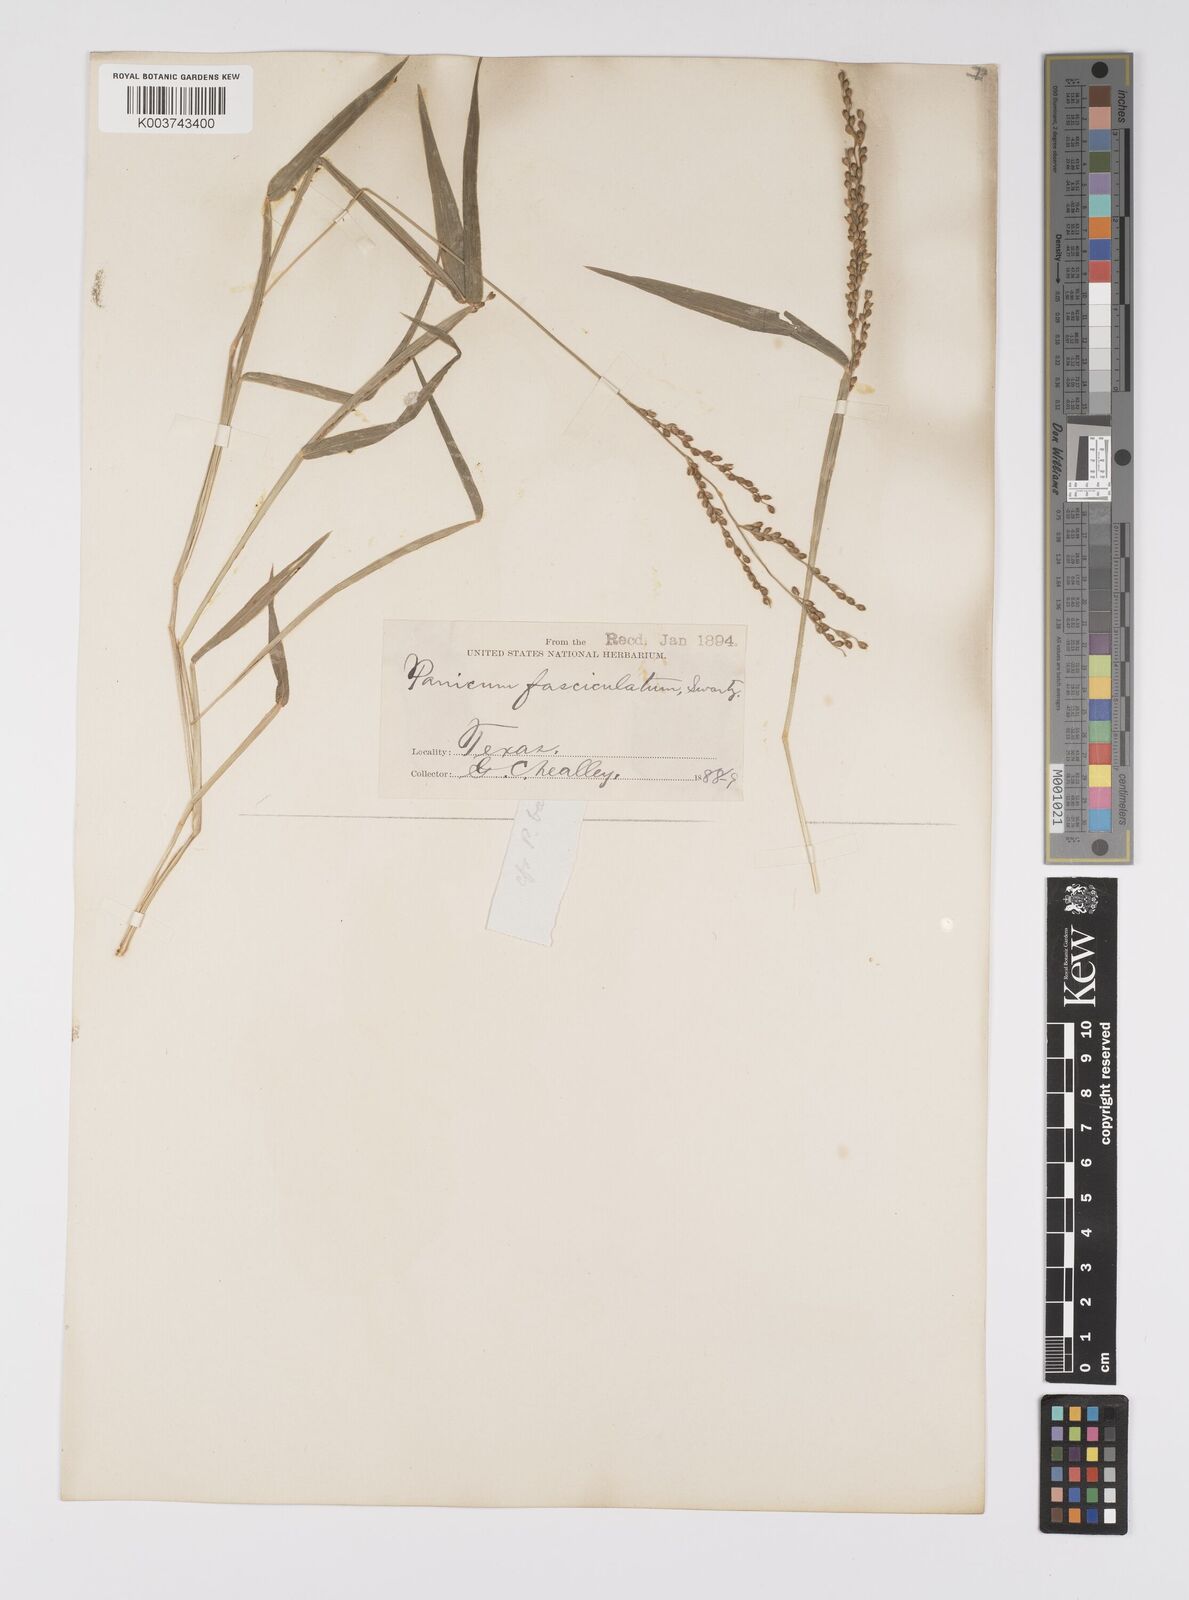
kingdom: Plantae
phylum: Tracheophyta
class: Liliopsida
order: Poales
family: Poaceae
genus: Urochloa
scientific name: Urochloa fusca
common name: Browntop signal grass
